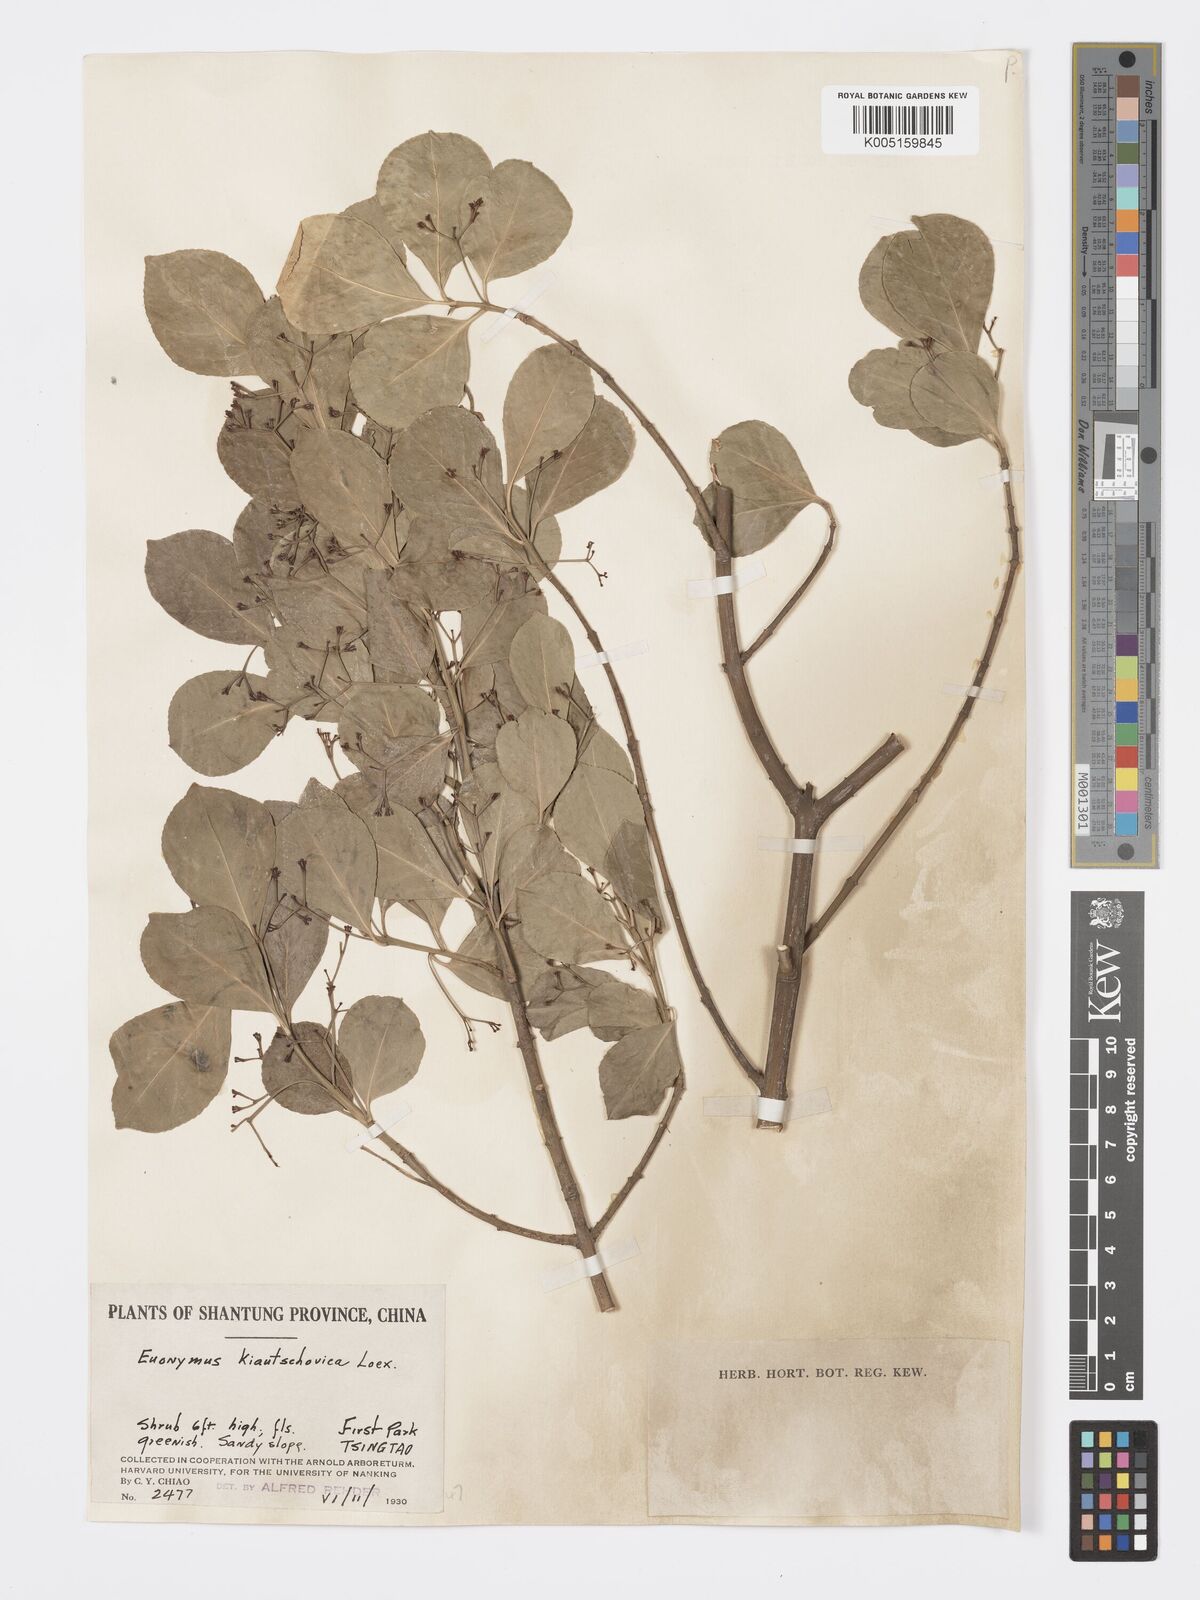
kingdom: Plantae
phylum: Tracheophyta
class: Magnoliopsida
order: Celastrales
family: Celastraceae
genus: Euonymus
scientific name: Euonymus fortunei
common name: Climbing euonymus
